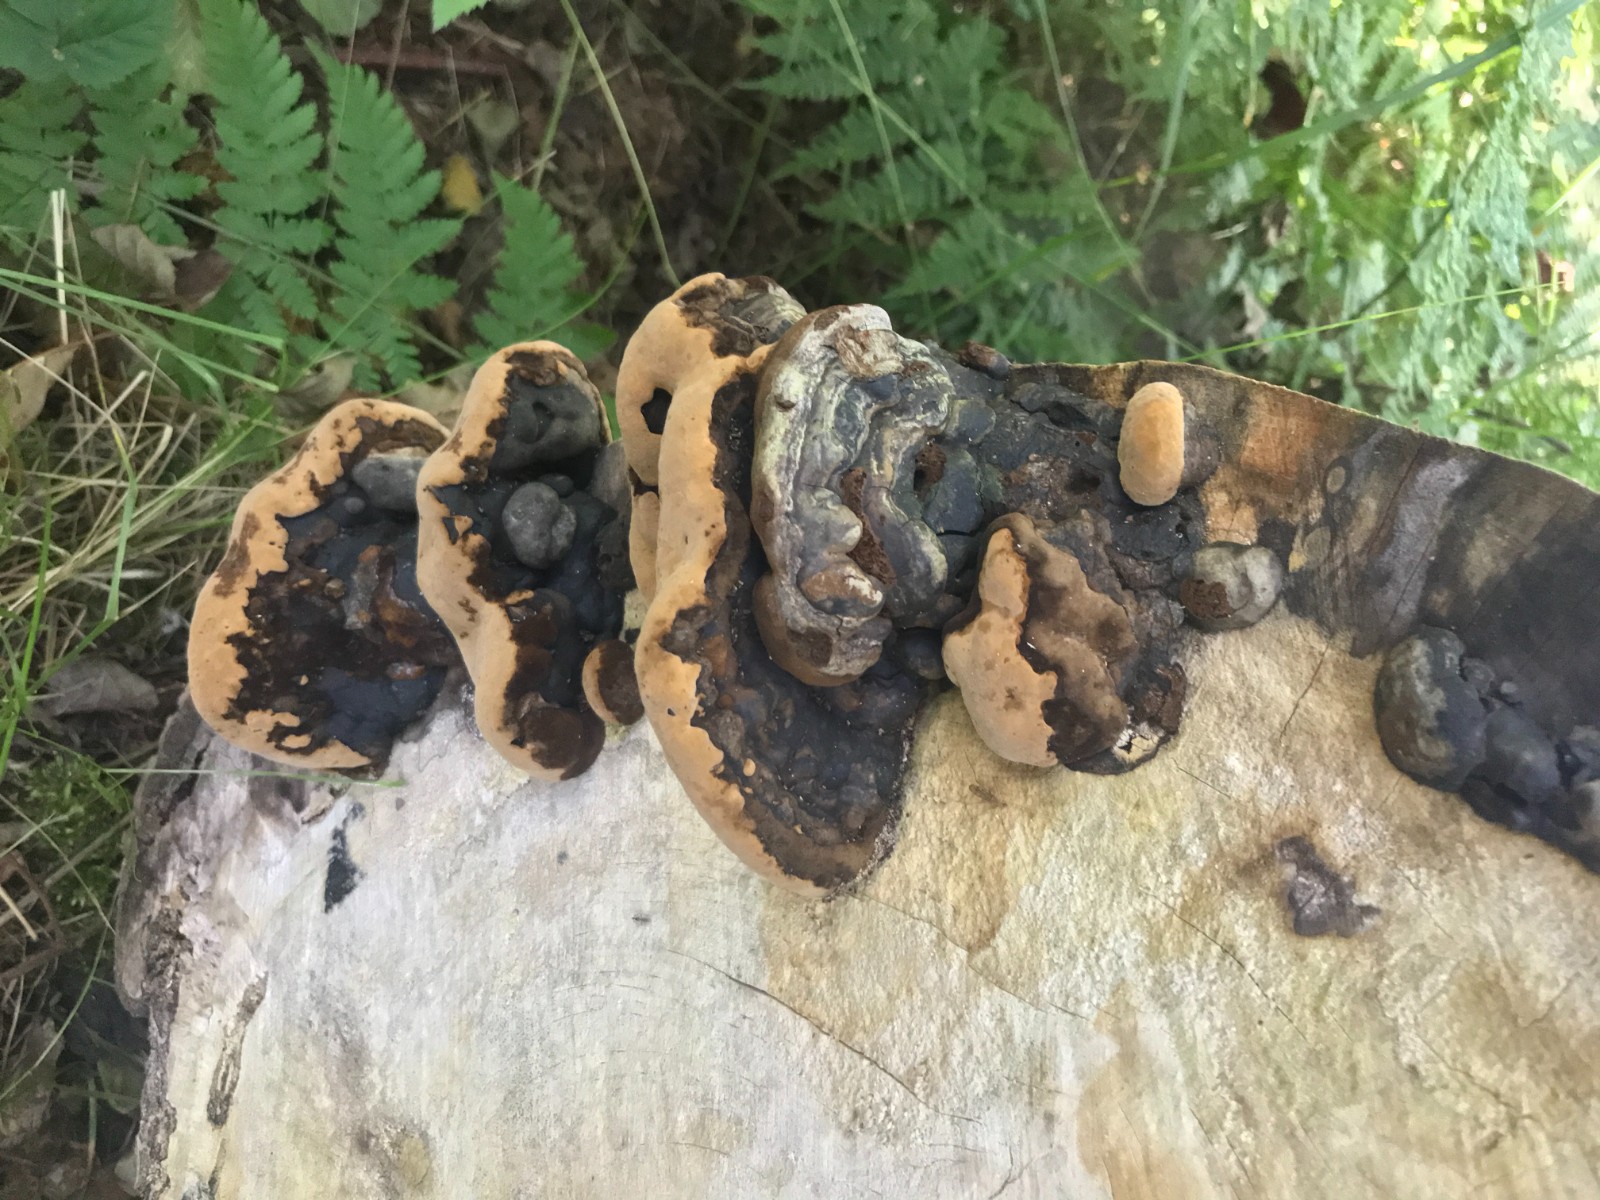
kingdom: Fungi
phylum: Basidiomycota
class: Agaricomycetes
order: Hymenochaetales
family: Hymenochaetaceae
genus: Phellinus
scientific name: Phellinus populicola
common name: poppel-ildporesvamp
